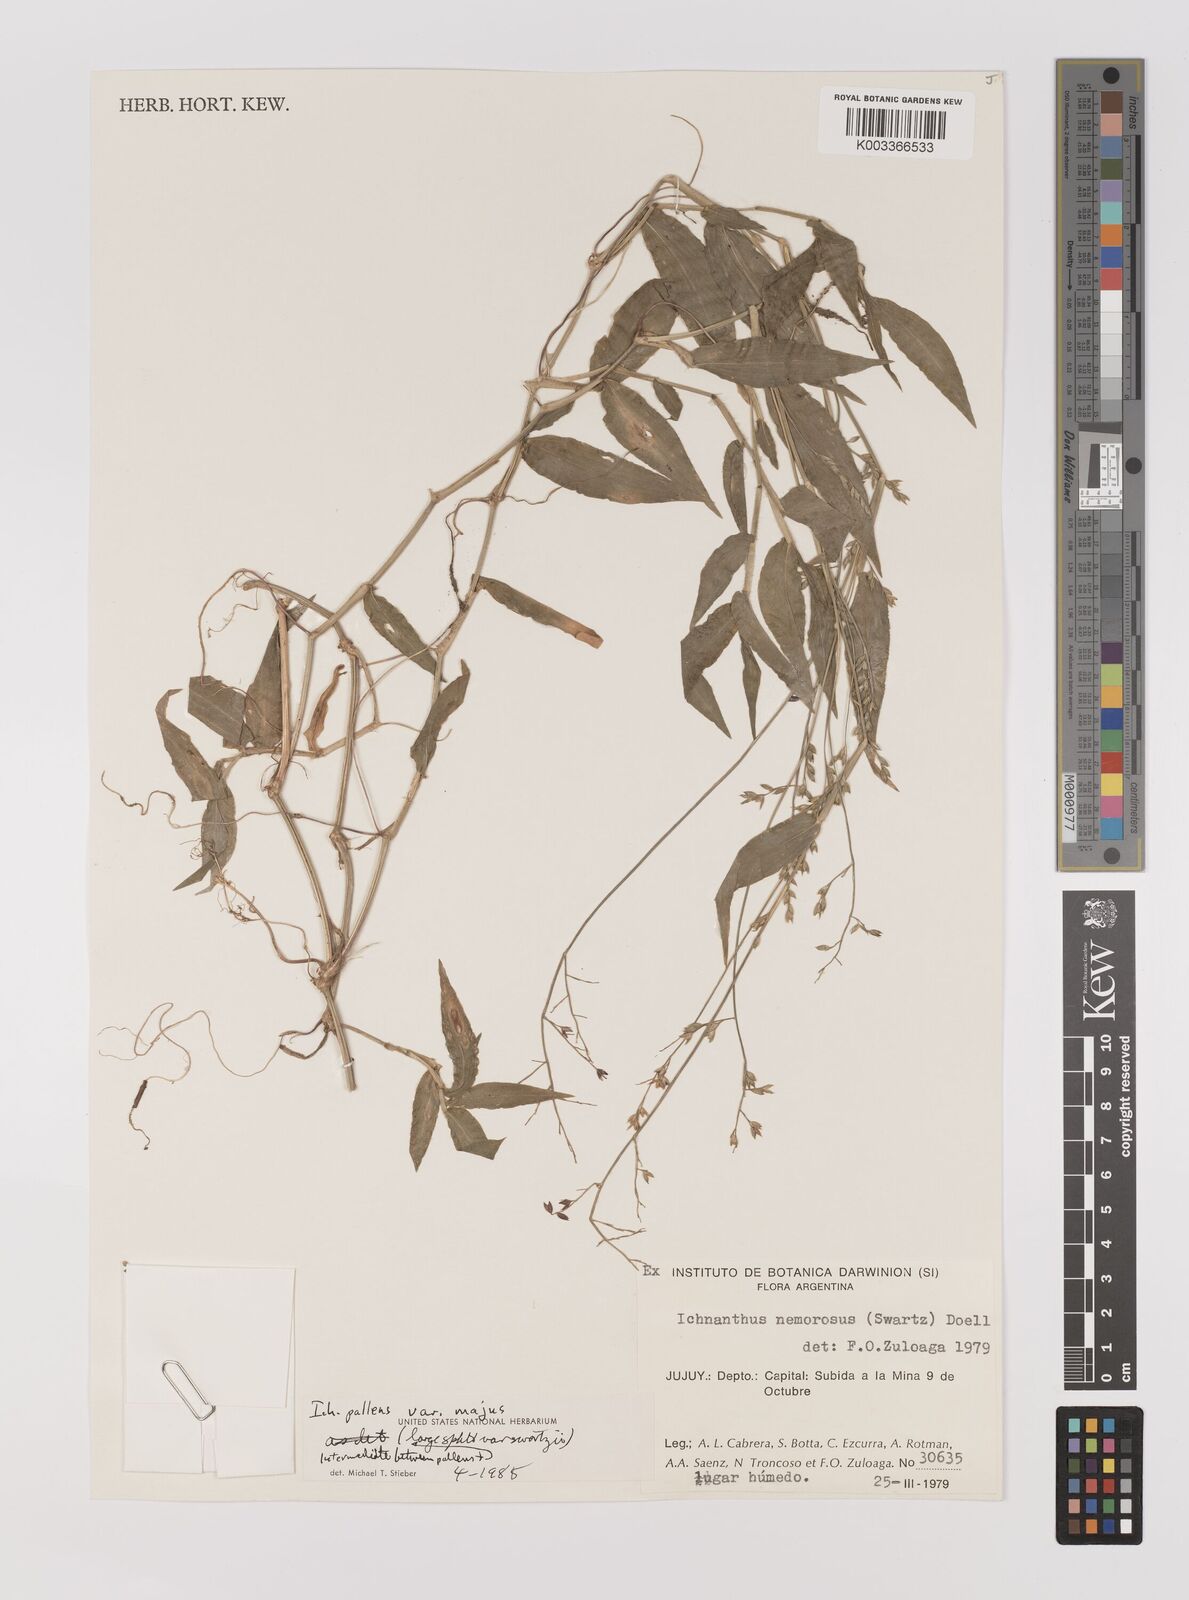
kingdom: Plantae
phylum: Tracheophyta
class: Liliopsida
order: Poales
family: Poaceae
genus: Ichnanthus
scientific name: Ichnanthus pallens
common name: Water grass
